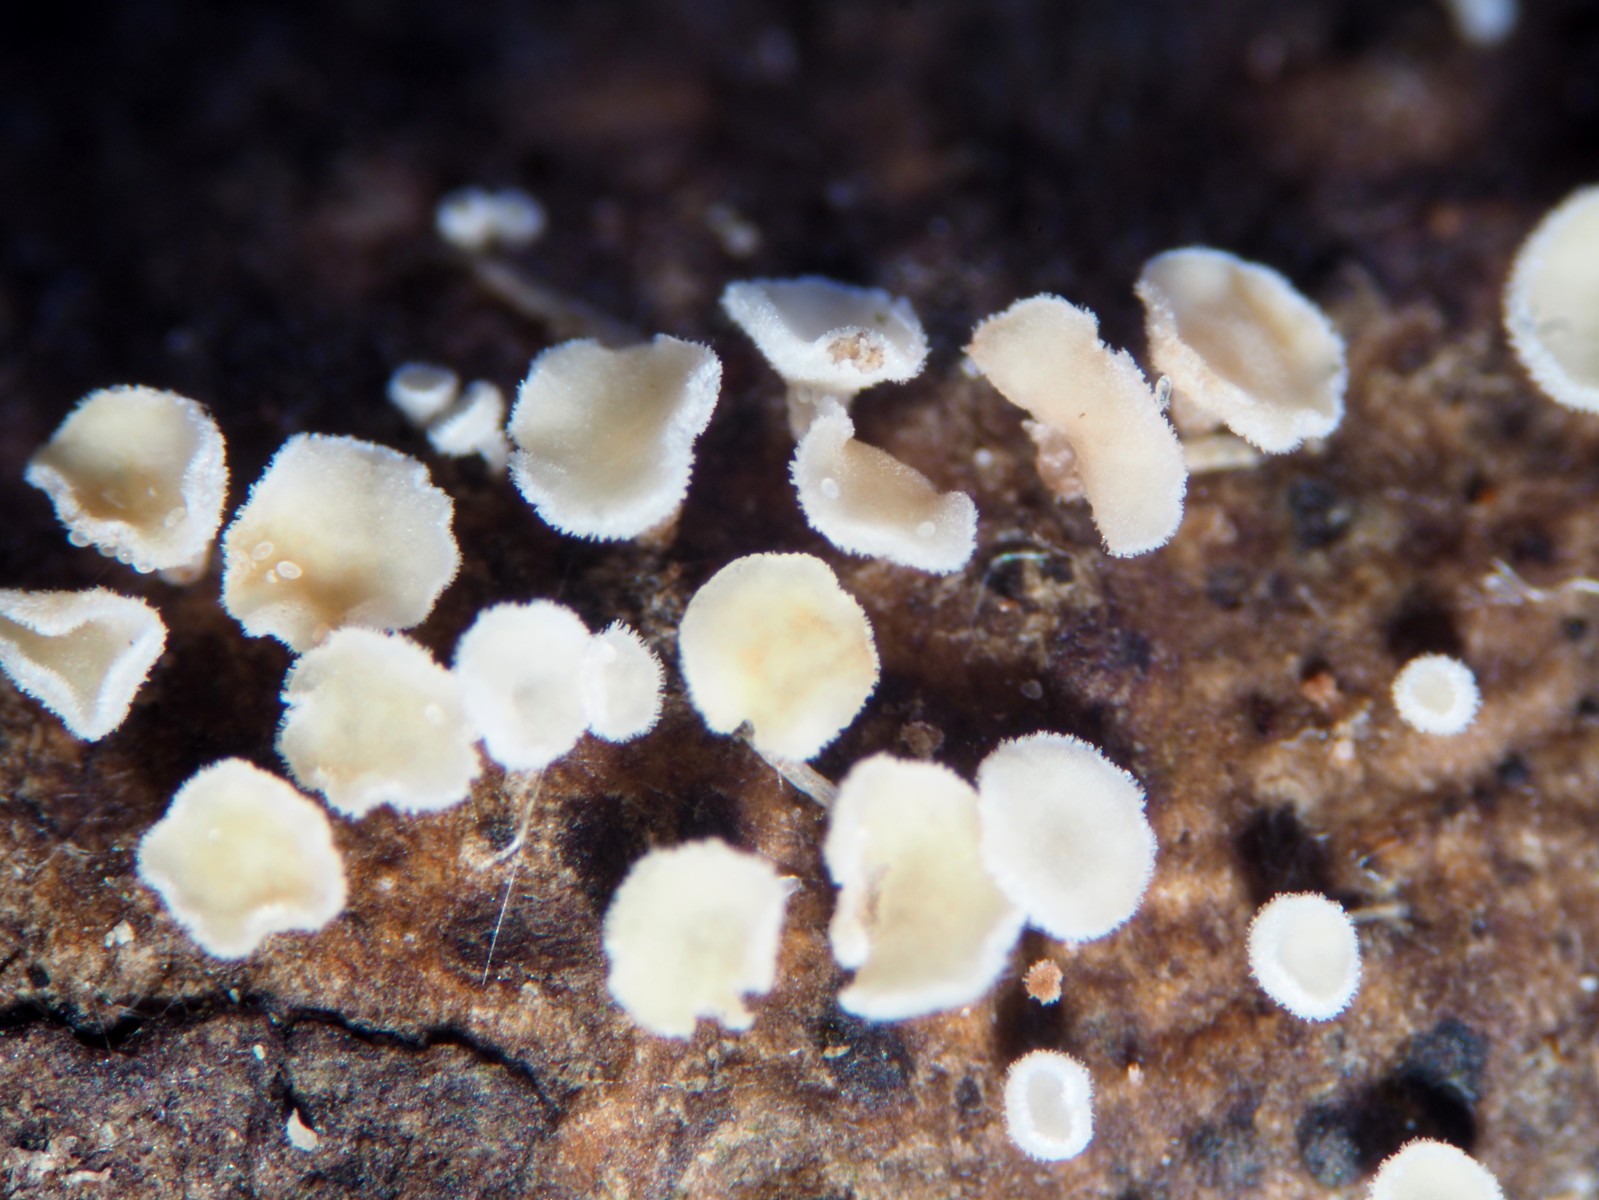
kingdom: Fungi
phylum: Ascomycota
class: Leotiomycetes
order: Helotiales
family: Hyaloscyphaceae
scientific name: Hyaloscyphaceae
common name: frynseskivefamilien
